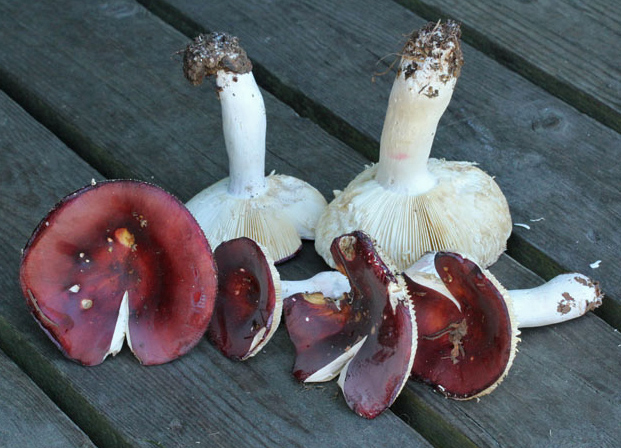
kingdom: Fungi
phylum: Basidiomycota
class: Agaricomycetes
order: Russulales
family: Russulaceae
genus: Russula
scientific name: Russula paludosa
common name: prægtig skørhat
